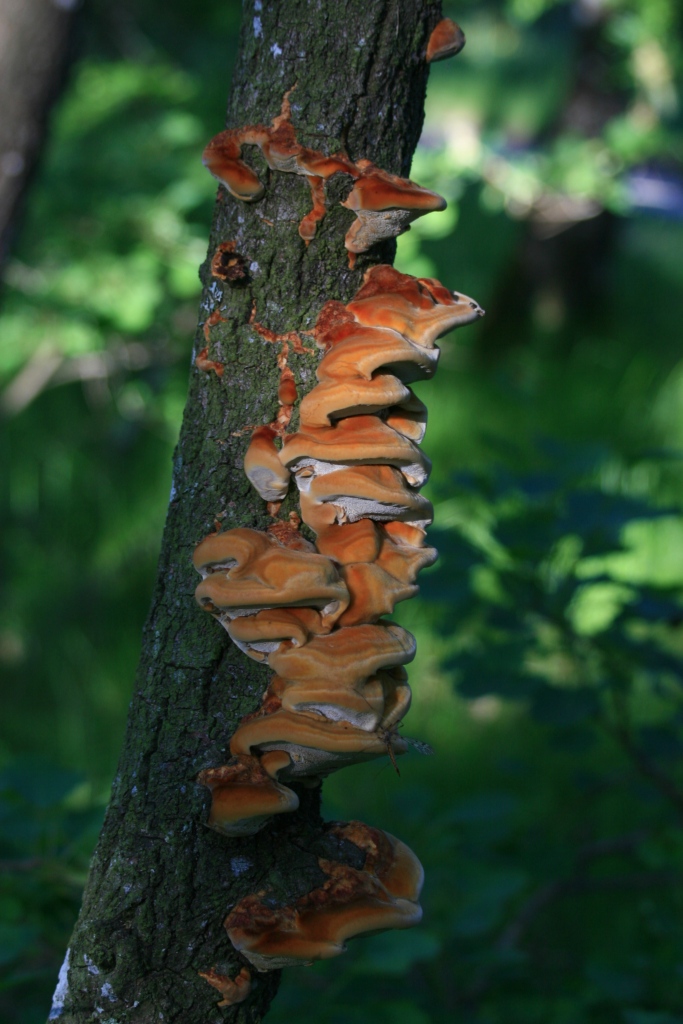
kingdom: Fungi
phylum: Basidiomycota
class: Agaricomycetes
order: Hymenochaetales
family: Hymenochaetaceae
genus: Inocutis
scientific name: Inocutis rheades
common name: ræve-spejlporesvamp
